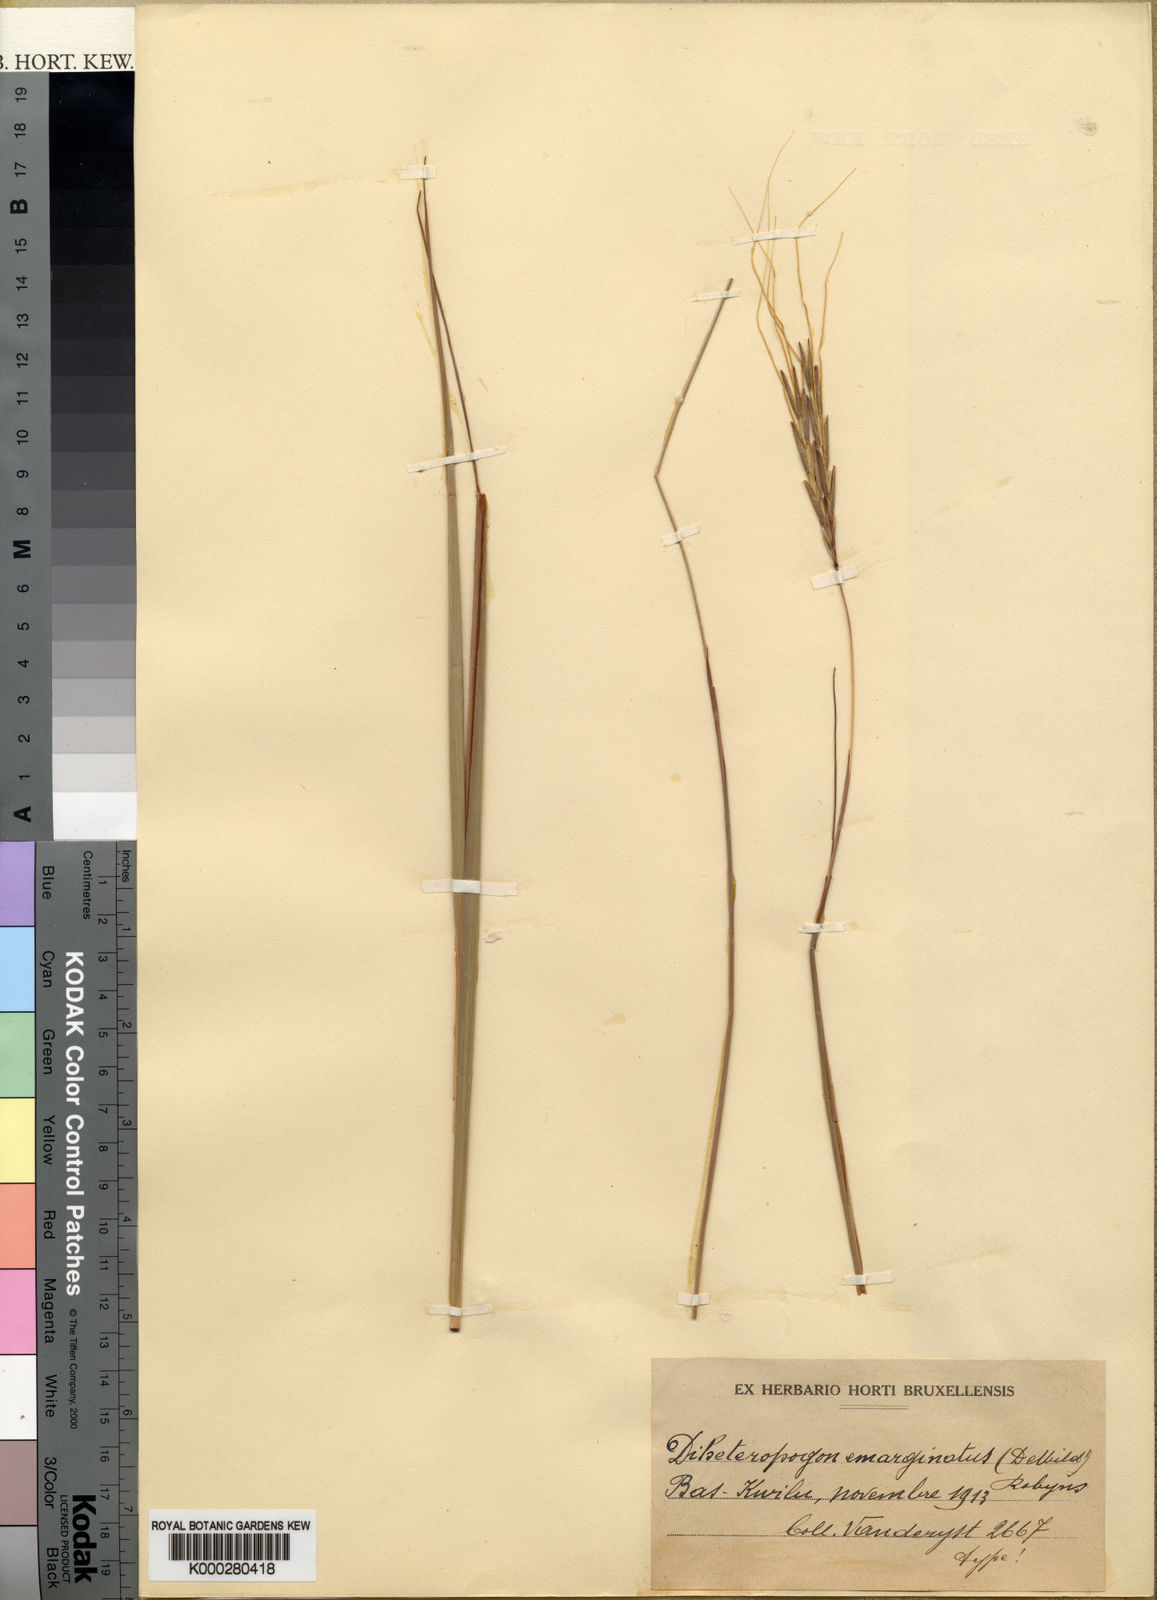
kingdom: Plantae
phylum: Tracheophyta
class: Liliopsida
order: Poales
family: Poaceae
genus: Diheteropogon
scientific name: Diheteropogon filifolius
